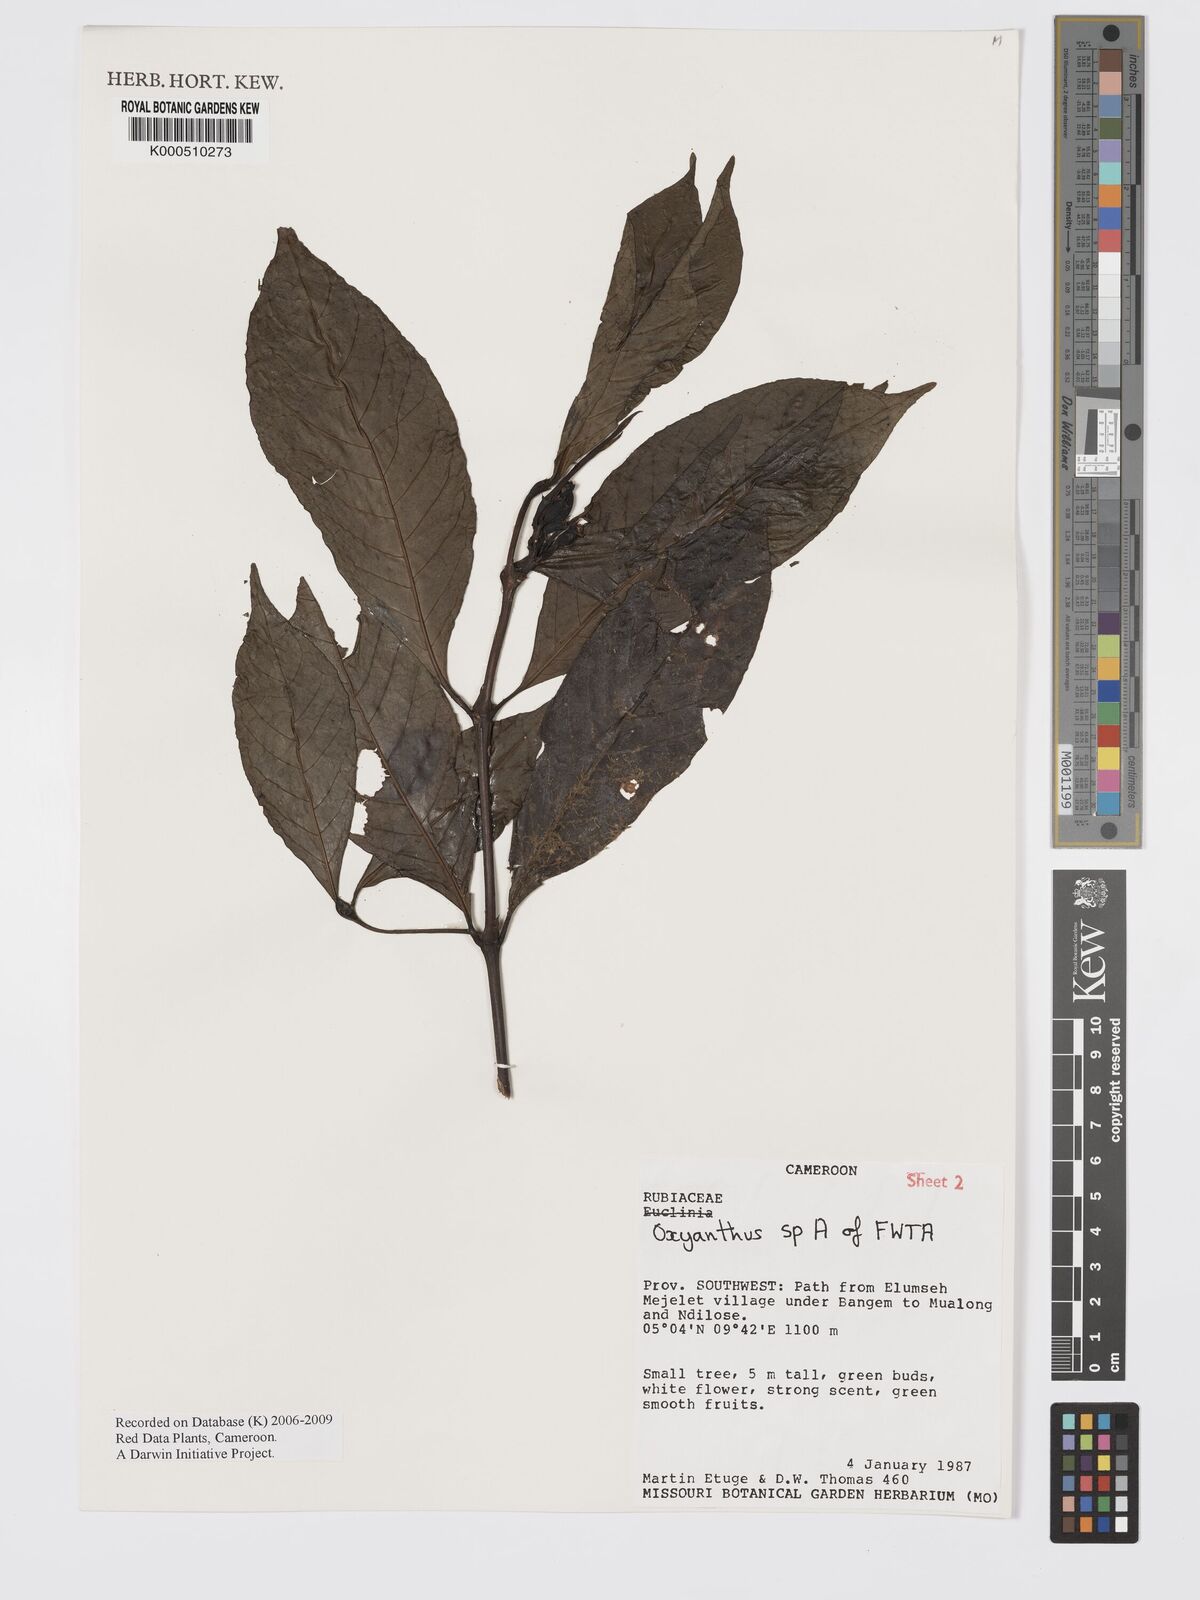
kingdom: Plantae
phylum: Tracheophyta
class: Magnoliopsida
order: Gentianales
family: Rubiaceae
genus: Oxyanthus
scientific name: Oxyanthus
